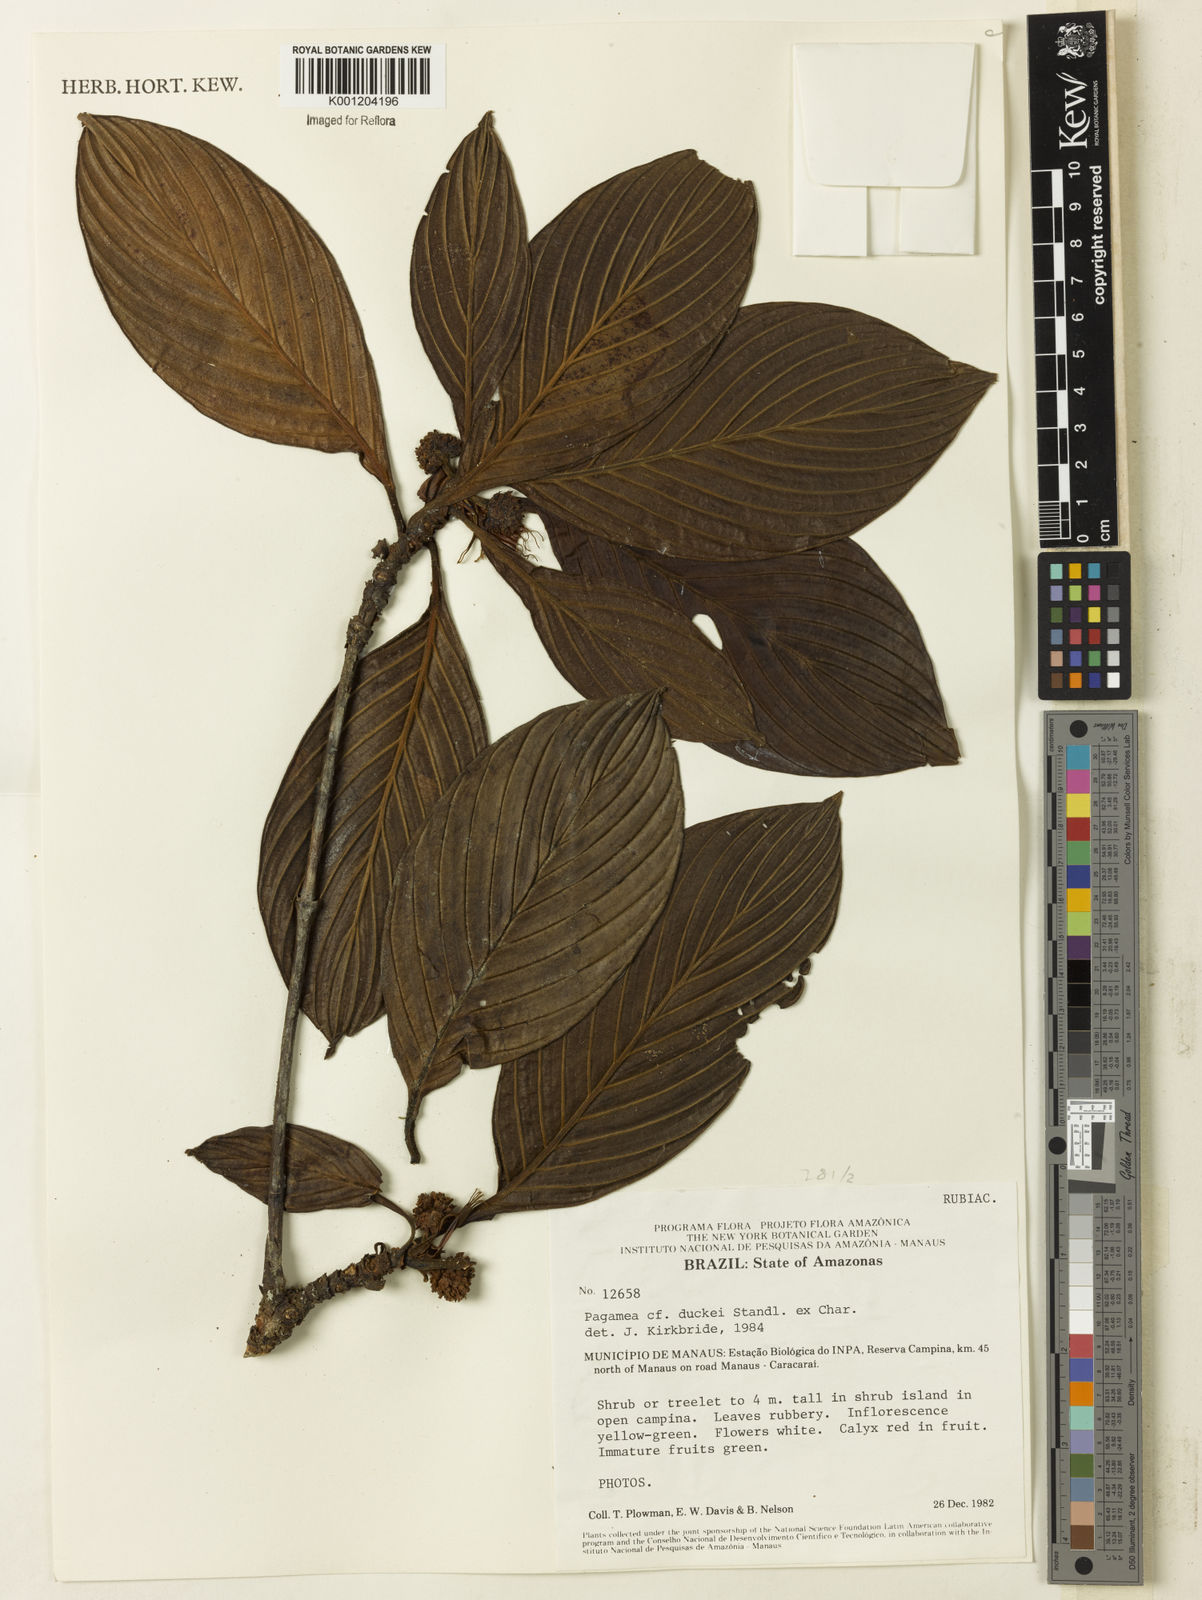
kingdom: Plantae
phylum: Tracheophyta
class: Magnoliopsida
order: Gentianales
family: Rubiaceae
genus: Pagamea
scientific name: Pagamea duckei
